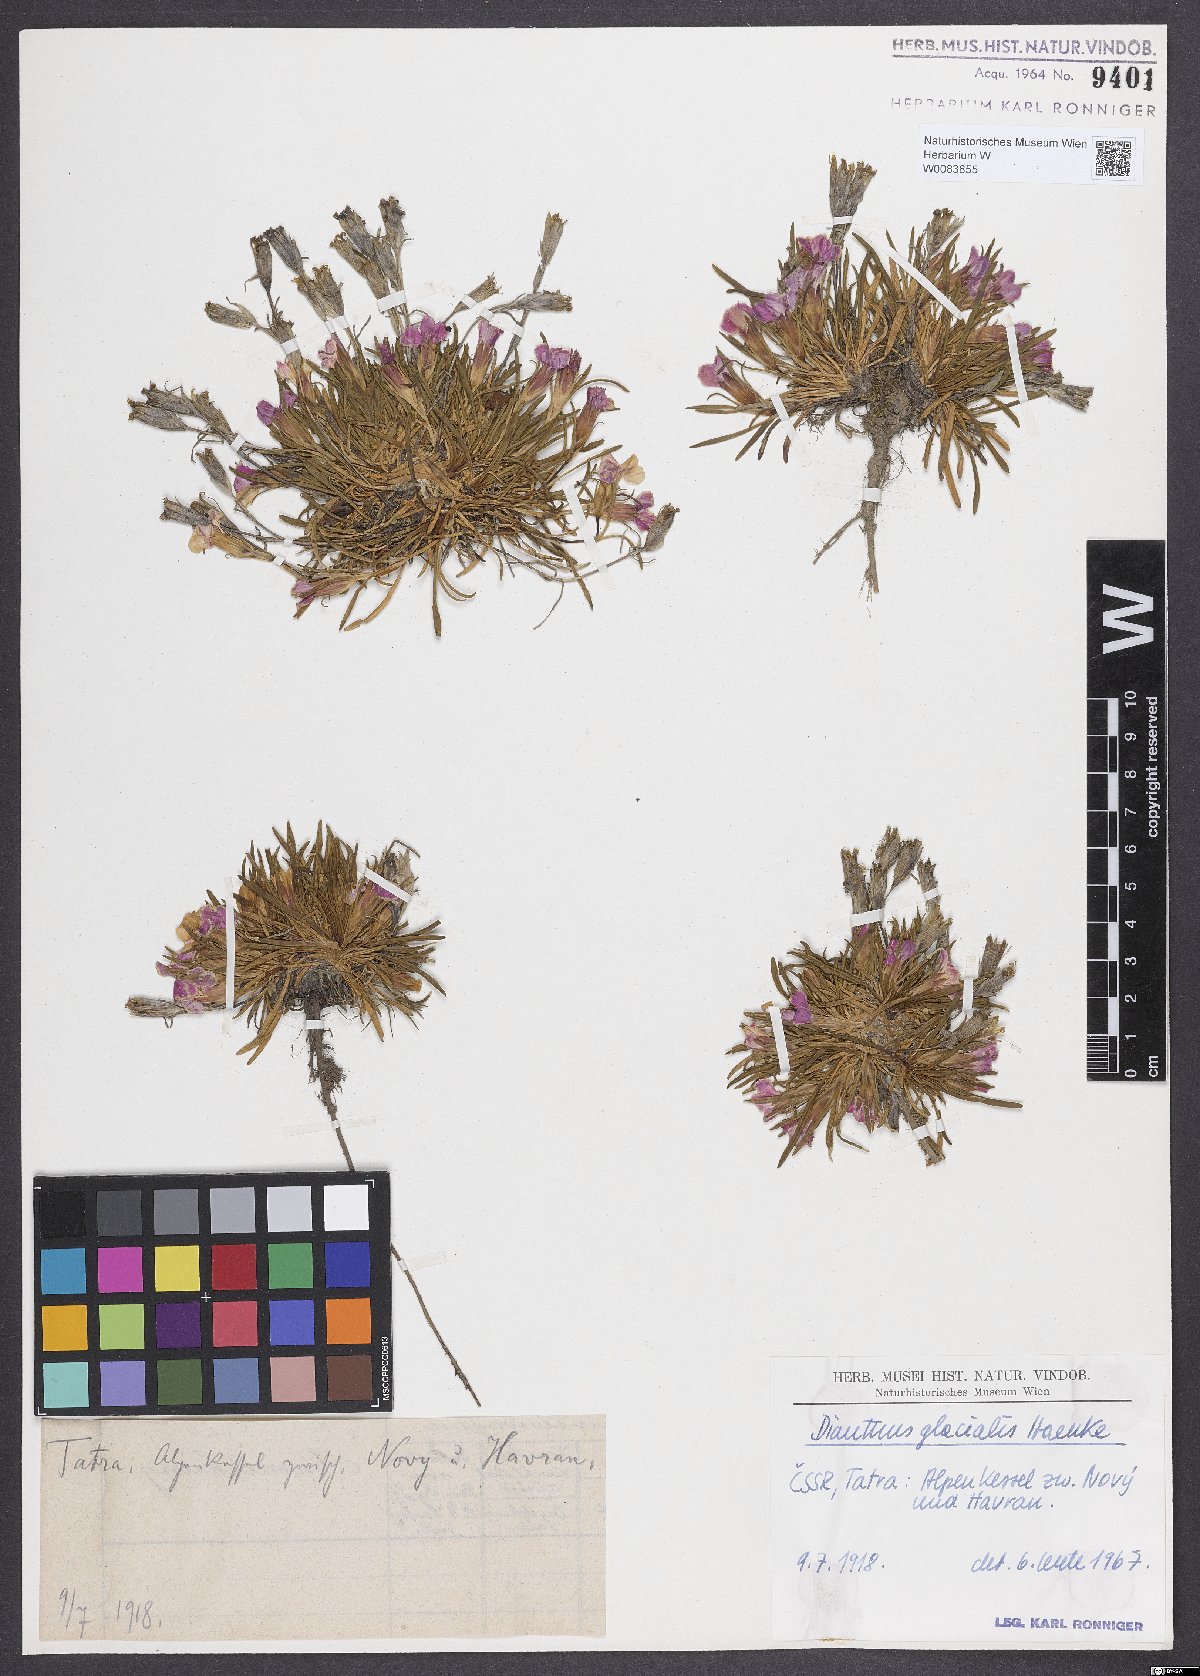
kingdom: Plantae
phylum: Tracheophyta
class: Magnoliopsida
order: Caryophyllales
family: Caryophyllaceae
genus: Dianthus
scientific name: Dianthus glacialis
